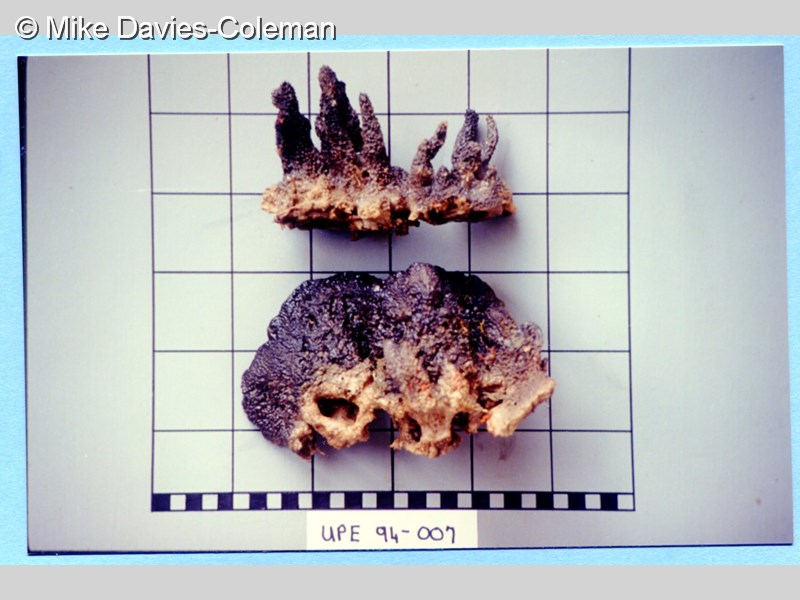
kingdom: Animalia
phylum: Porifera
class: Demospongiae
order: Dictyoceratida
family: Irciniidae
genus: Psammocinia
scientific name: Psammocinia
